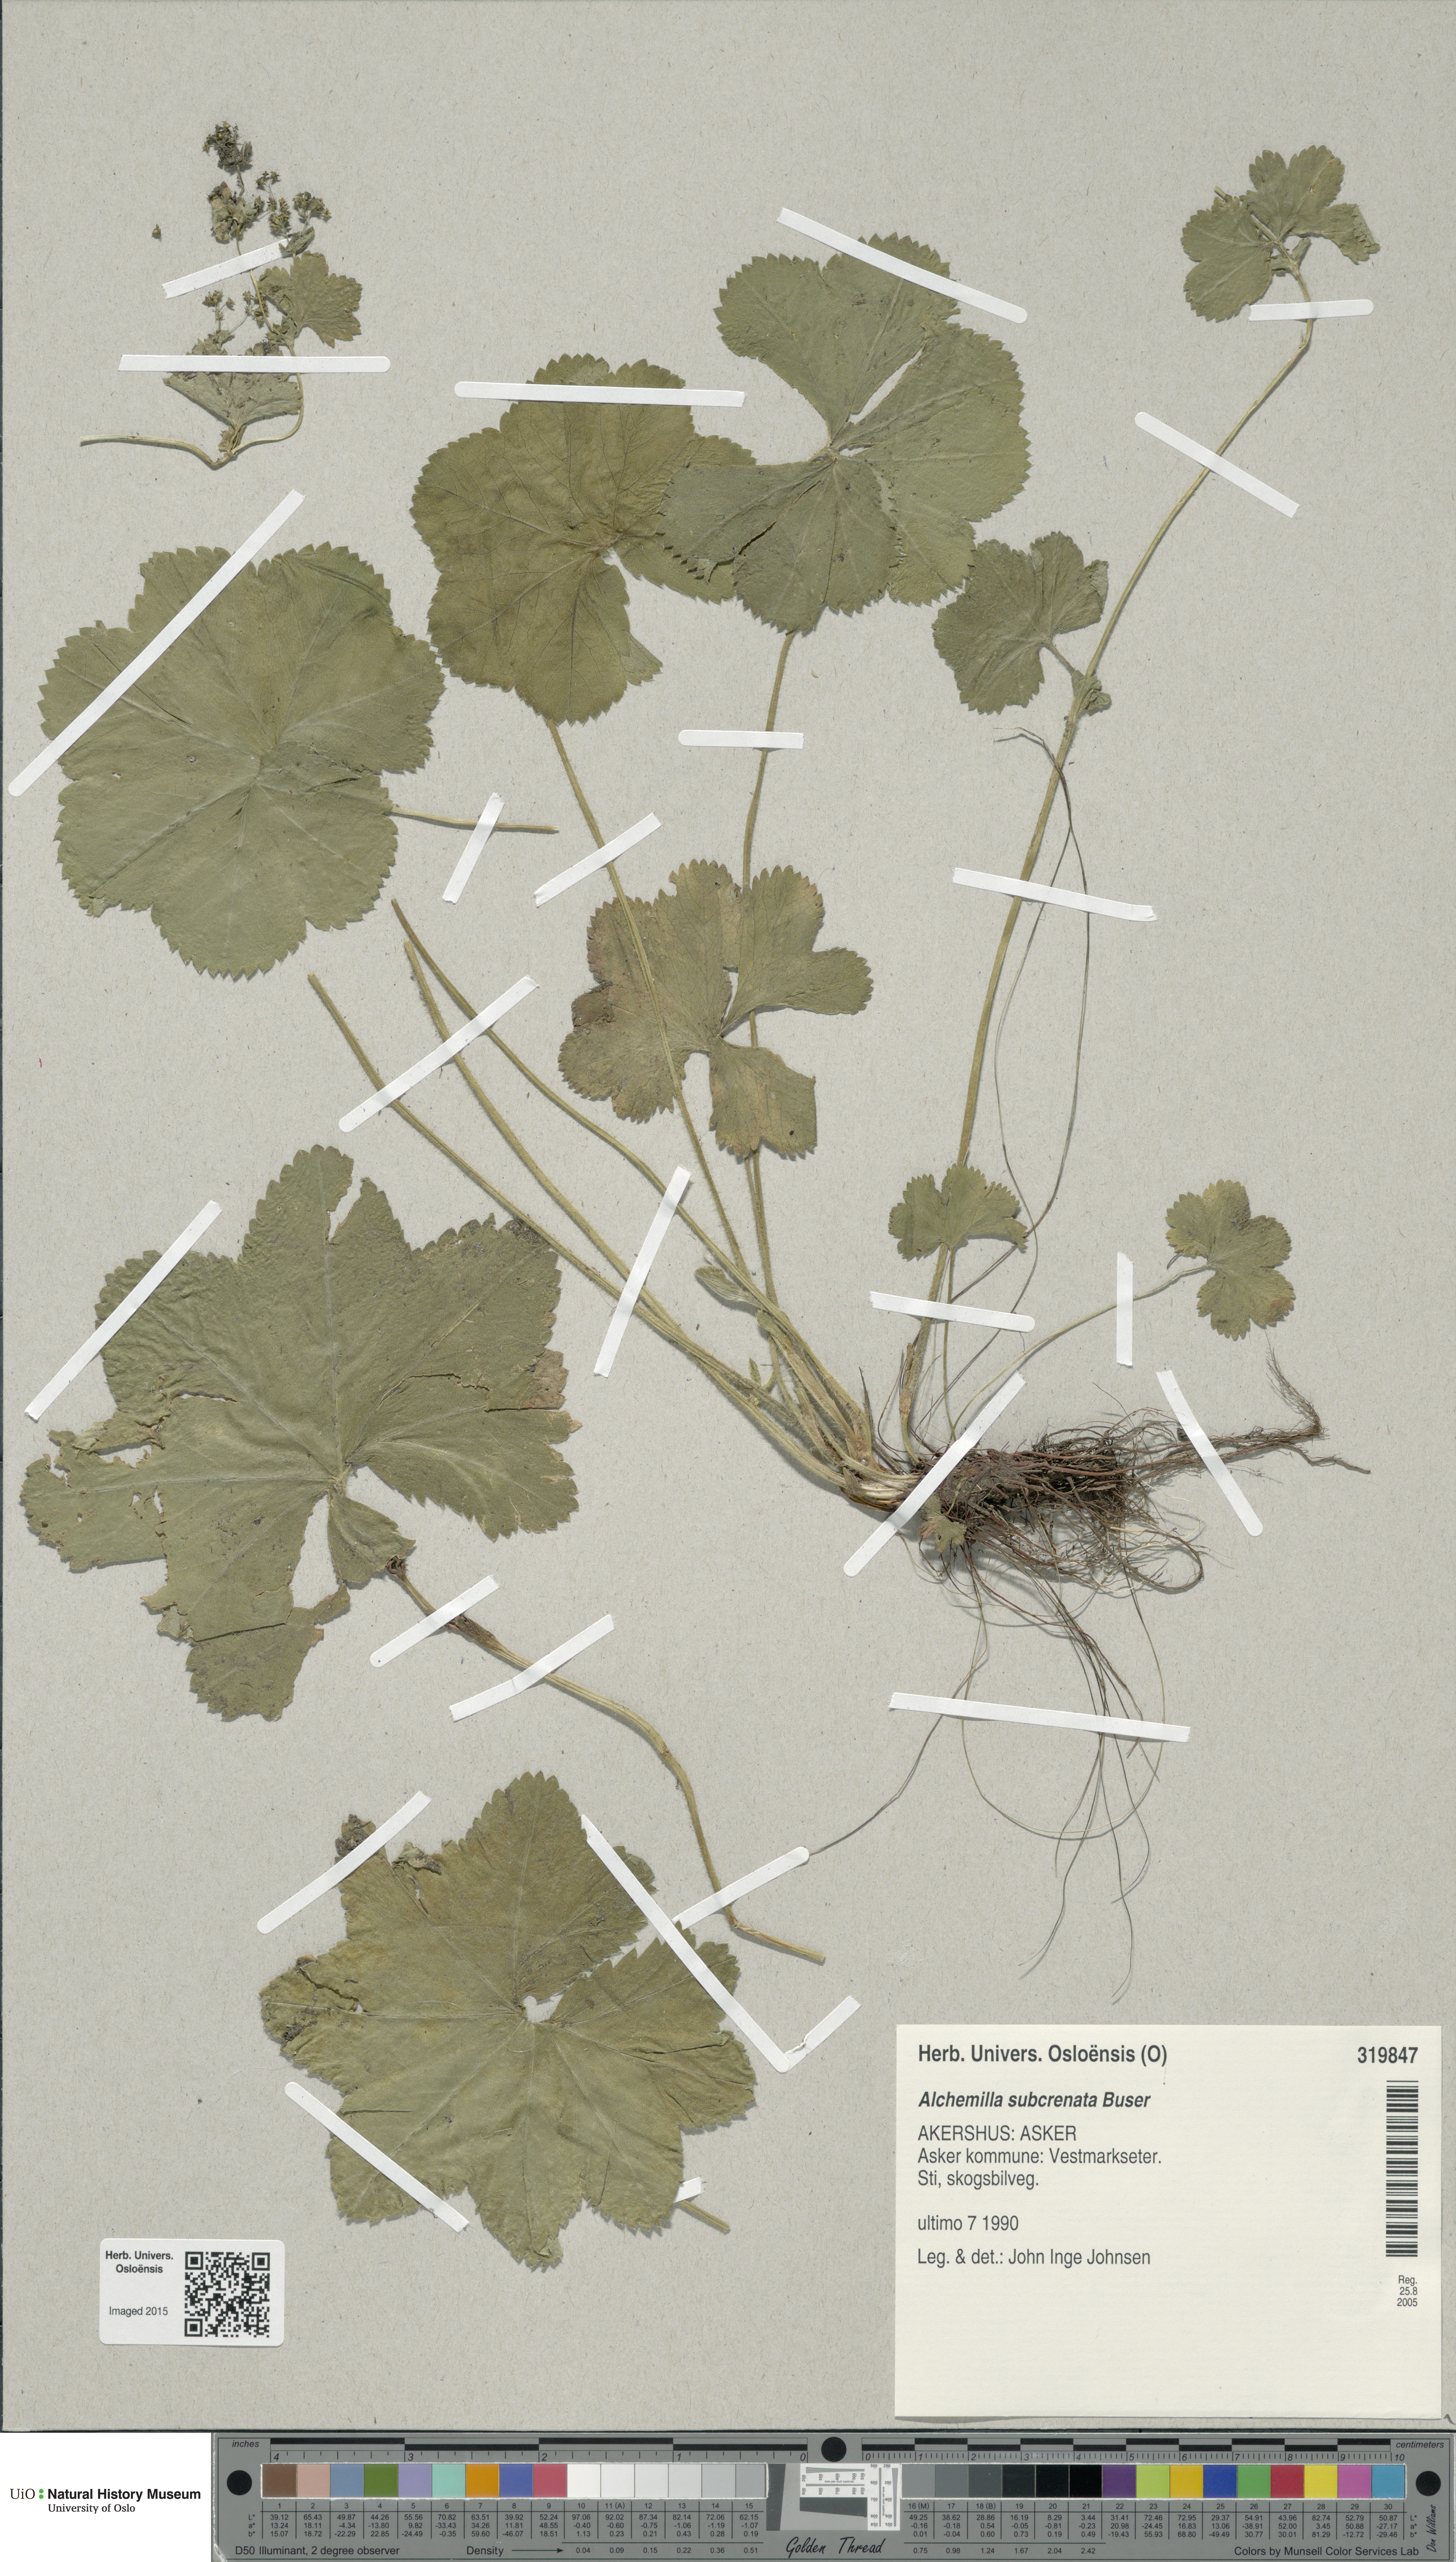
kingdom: Plantae
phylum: Tracheophyta
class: Magnoliopsida
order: Rosales
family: Rosaceae
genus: Alchemilla
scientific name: Alchemilla subcrenata
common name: Broadtooth lady's mantle
